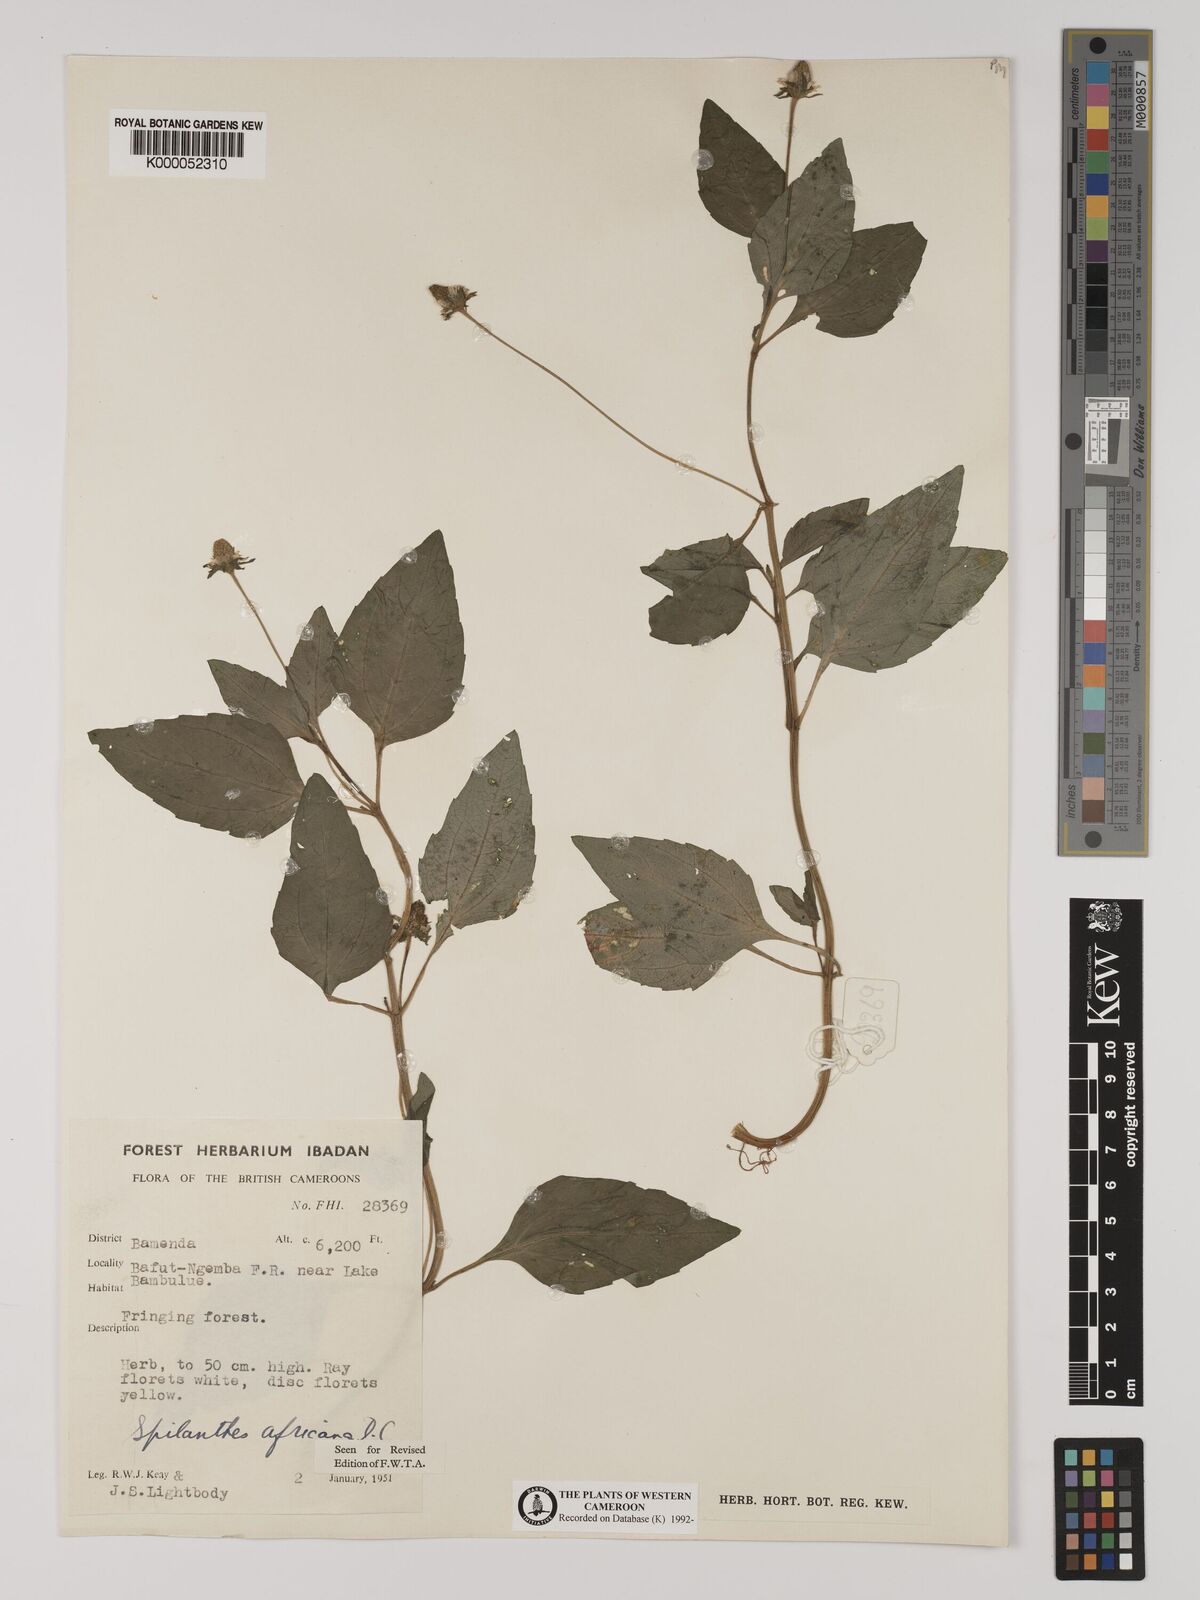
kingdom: Plantae
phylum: Tracheophyta
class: Magnoliopsida
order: Asterales
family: Asteraceae
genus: Acmella
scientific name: Acmella caulirhiza
